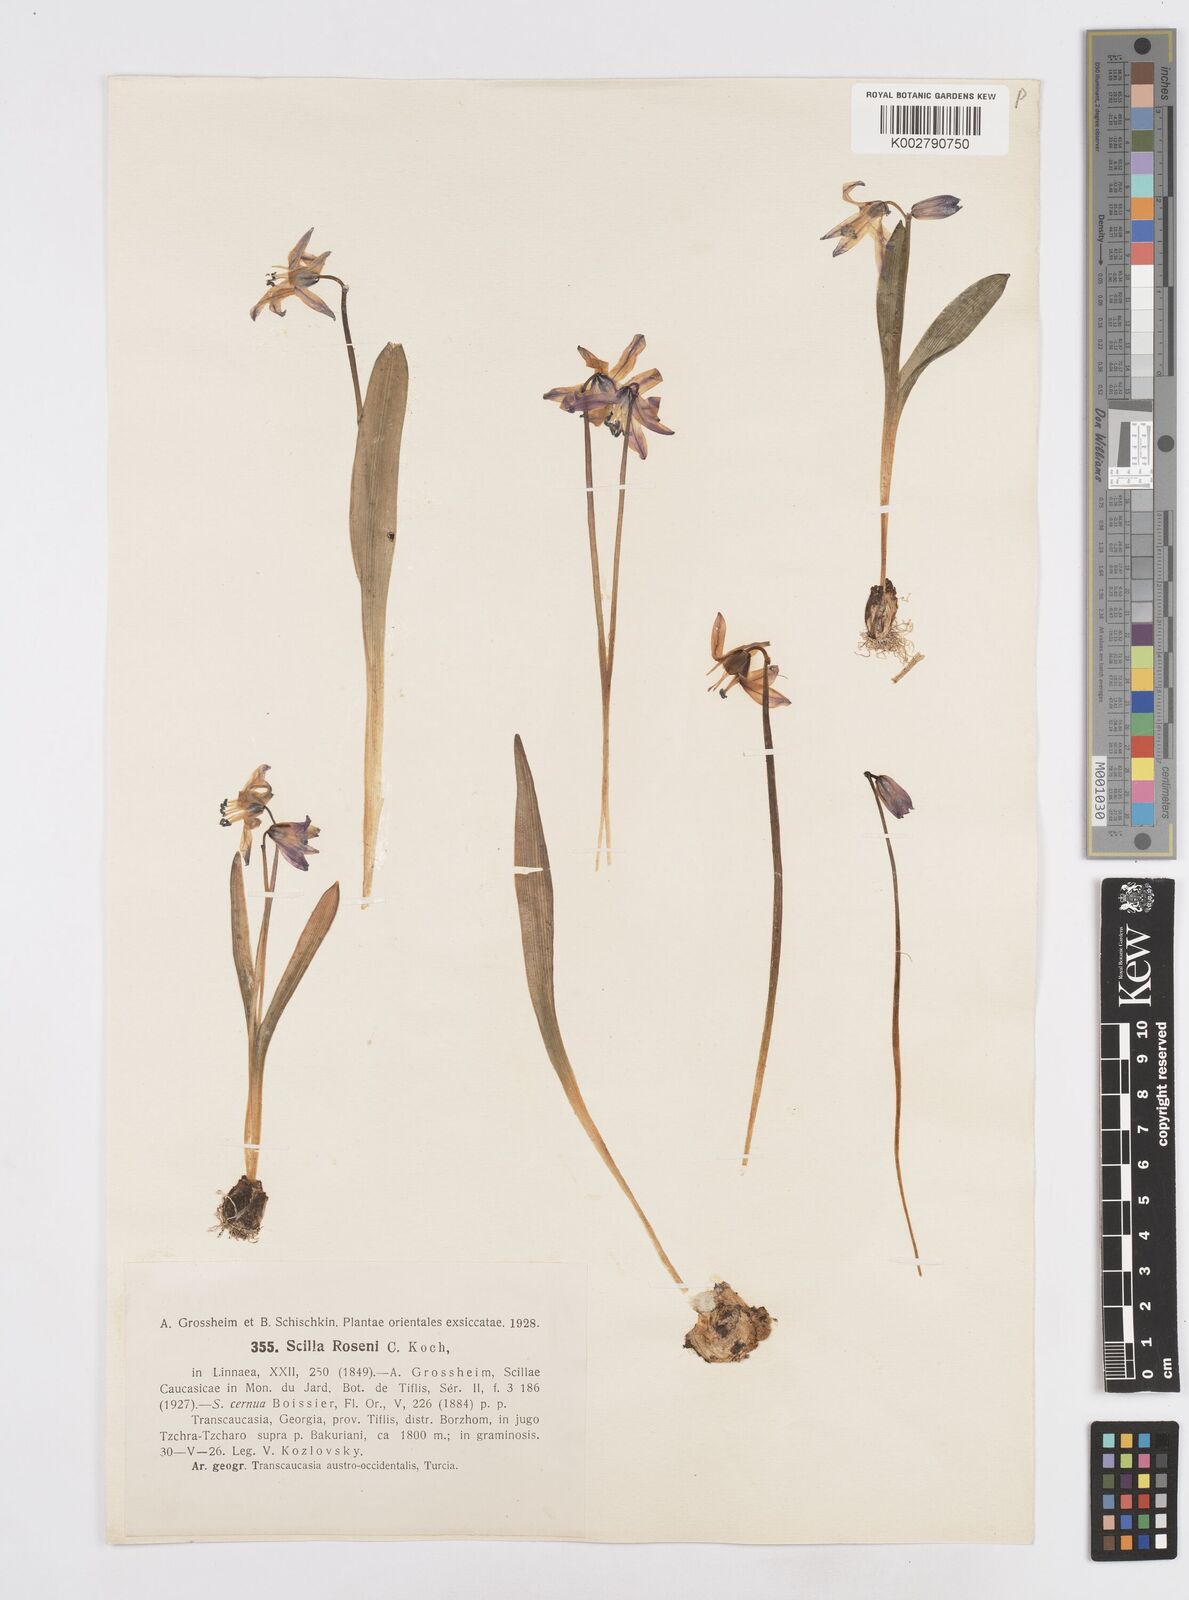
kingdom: Plantae
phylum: Tracheophyta
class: Liliopsida
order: Asparagales
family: Asparagaceae
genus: Scilla
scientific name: Scilla rosenii
